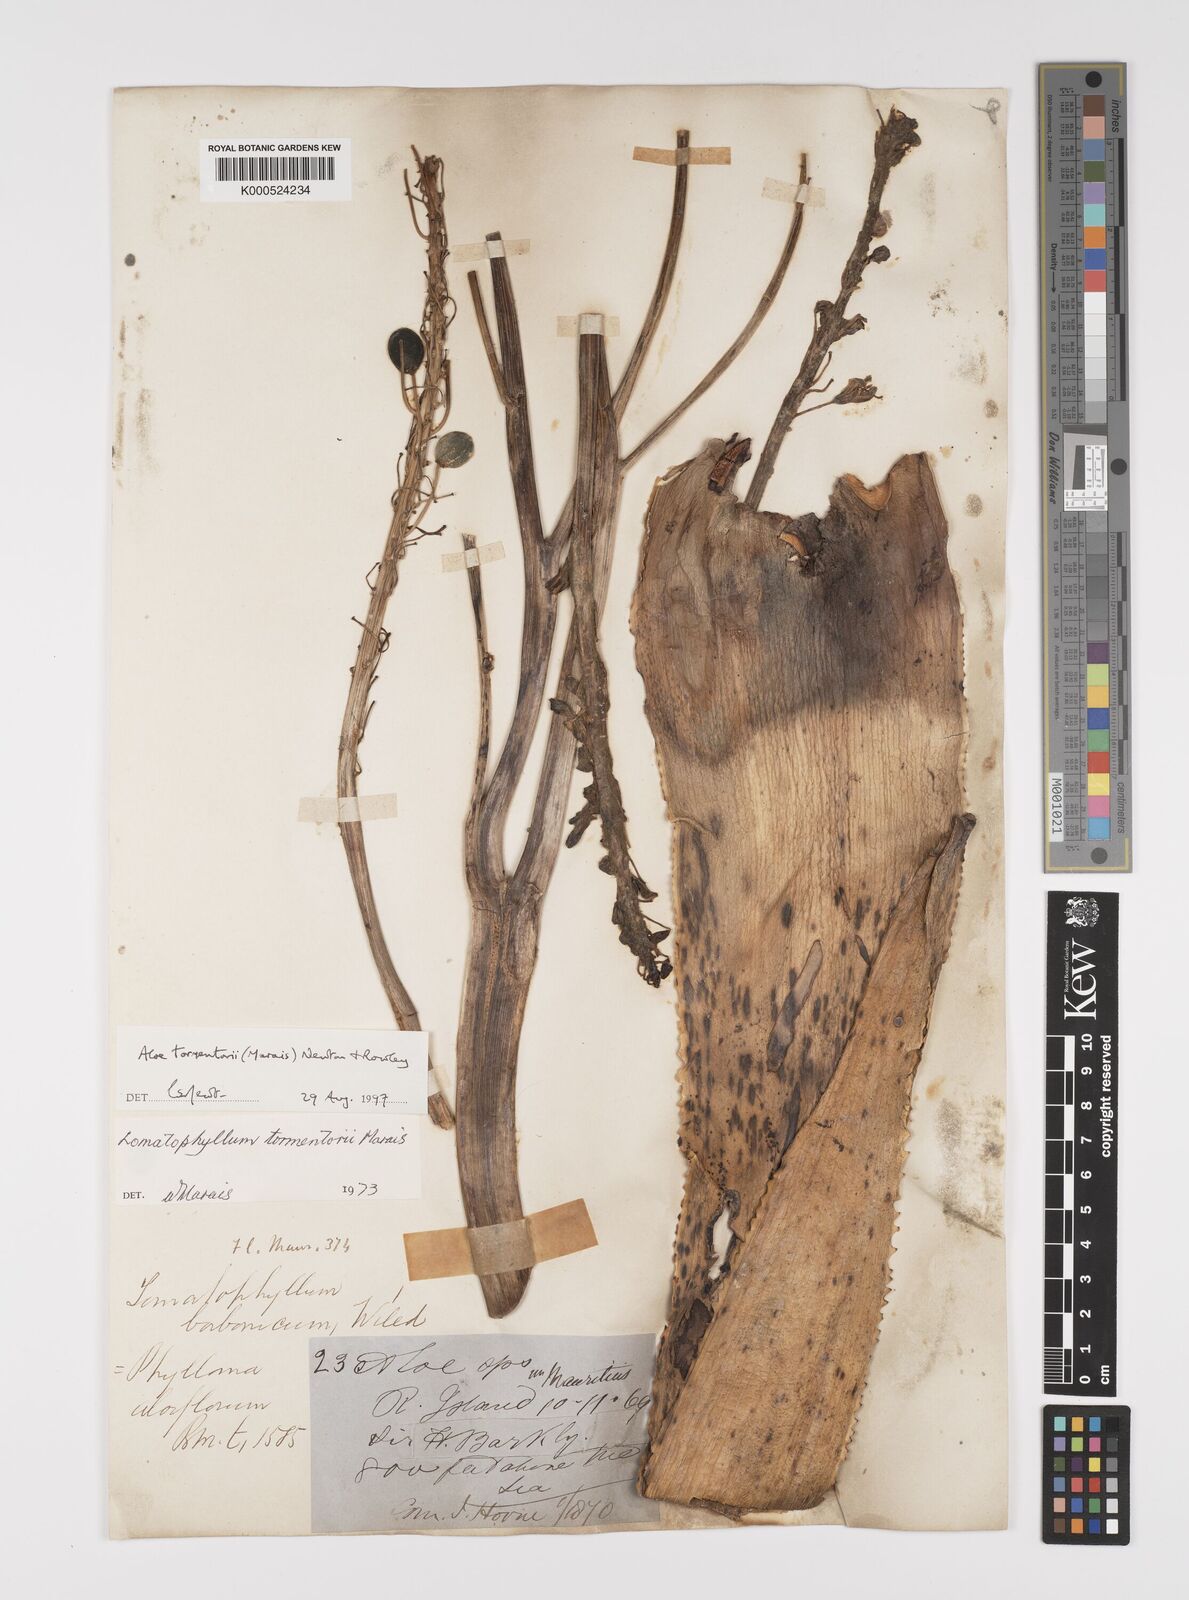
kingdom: Plantae
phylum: Tracheophyta
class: Liliopsida
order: Asparagales
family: Asphodelaceae
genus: Aloe
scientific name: Aloe tormentorii
